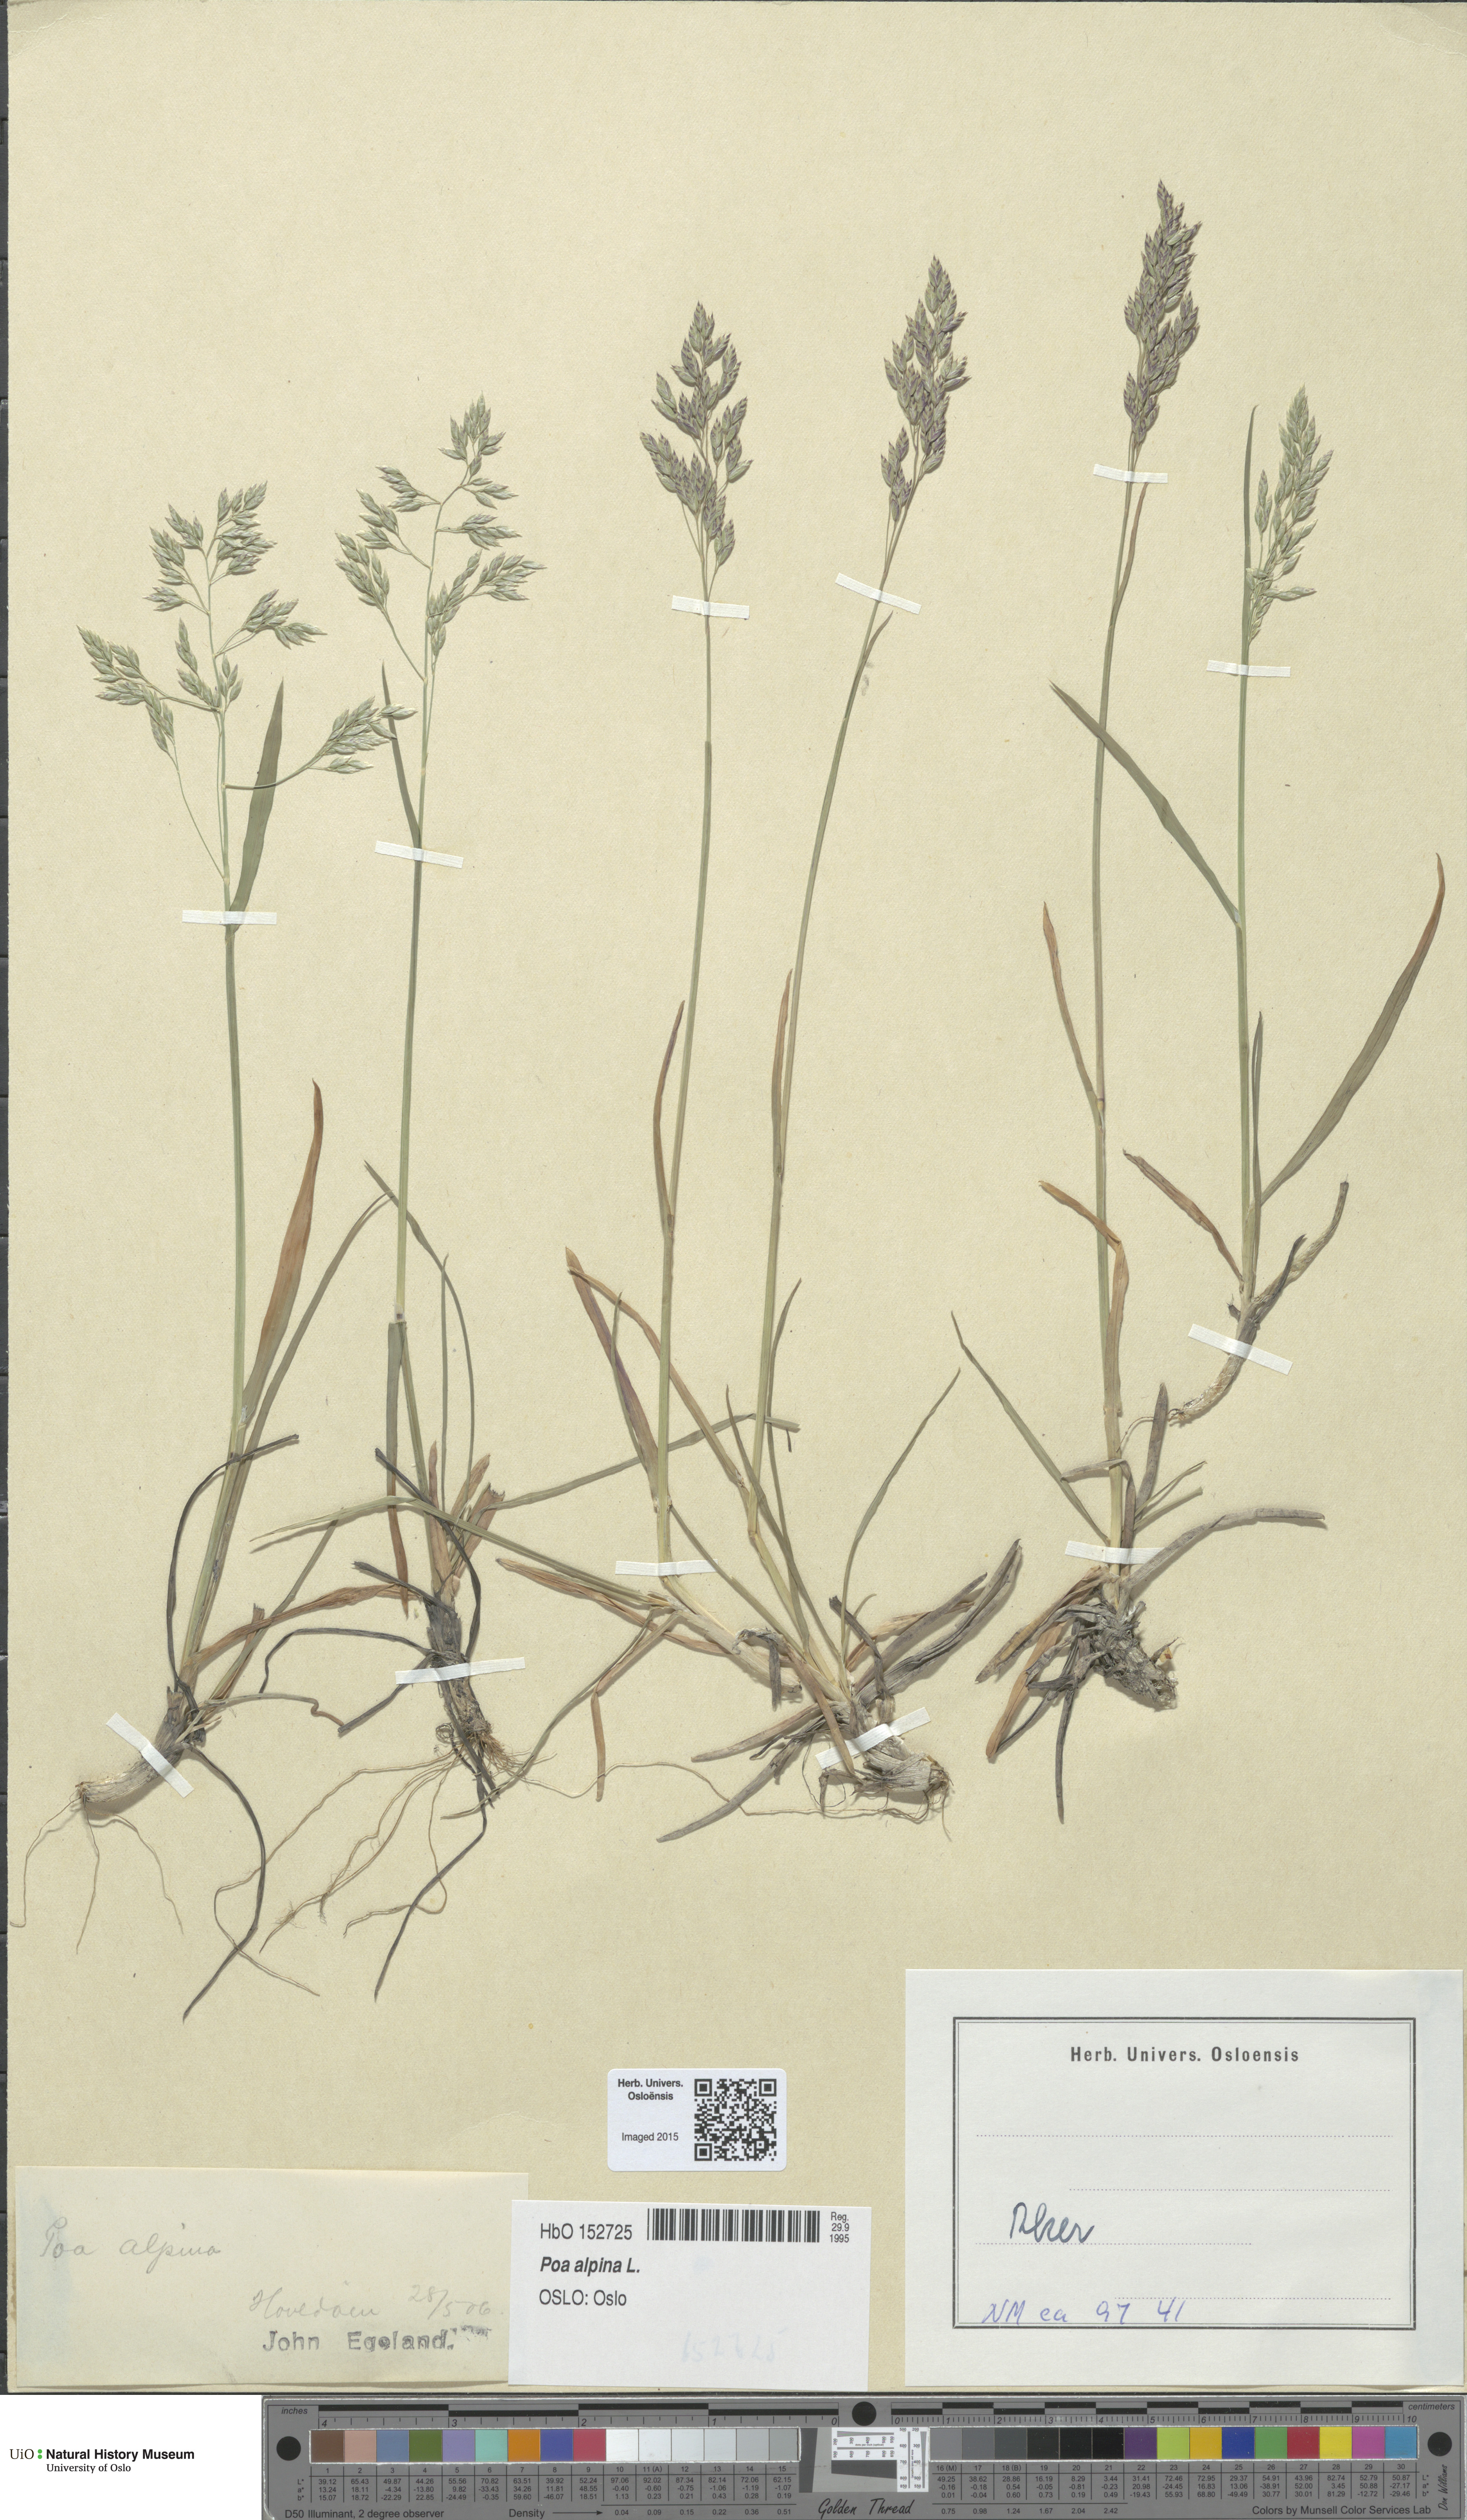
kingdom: Plantae
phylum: Tracheophyta
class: Liliopsida
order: Poales
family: Poaceae
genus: Poa
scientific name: Poa alpina
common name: Alpine bluegrass
